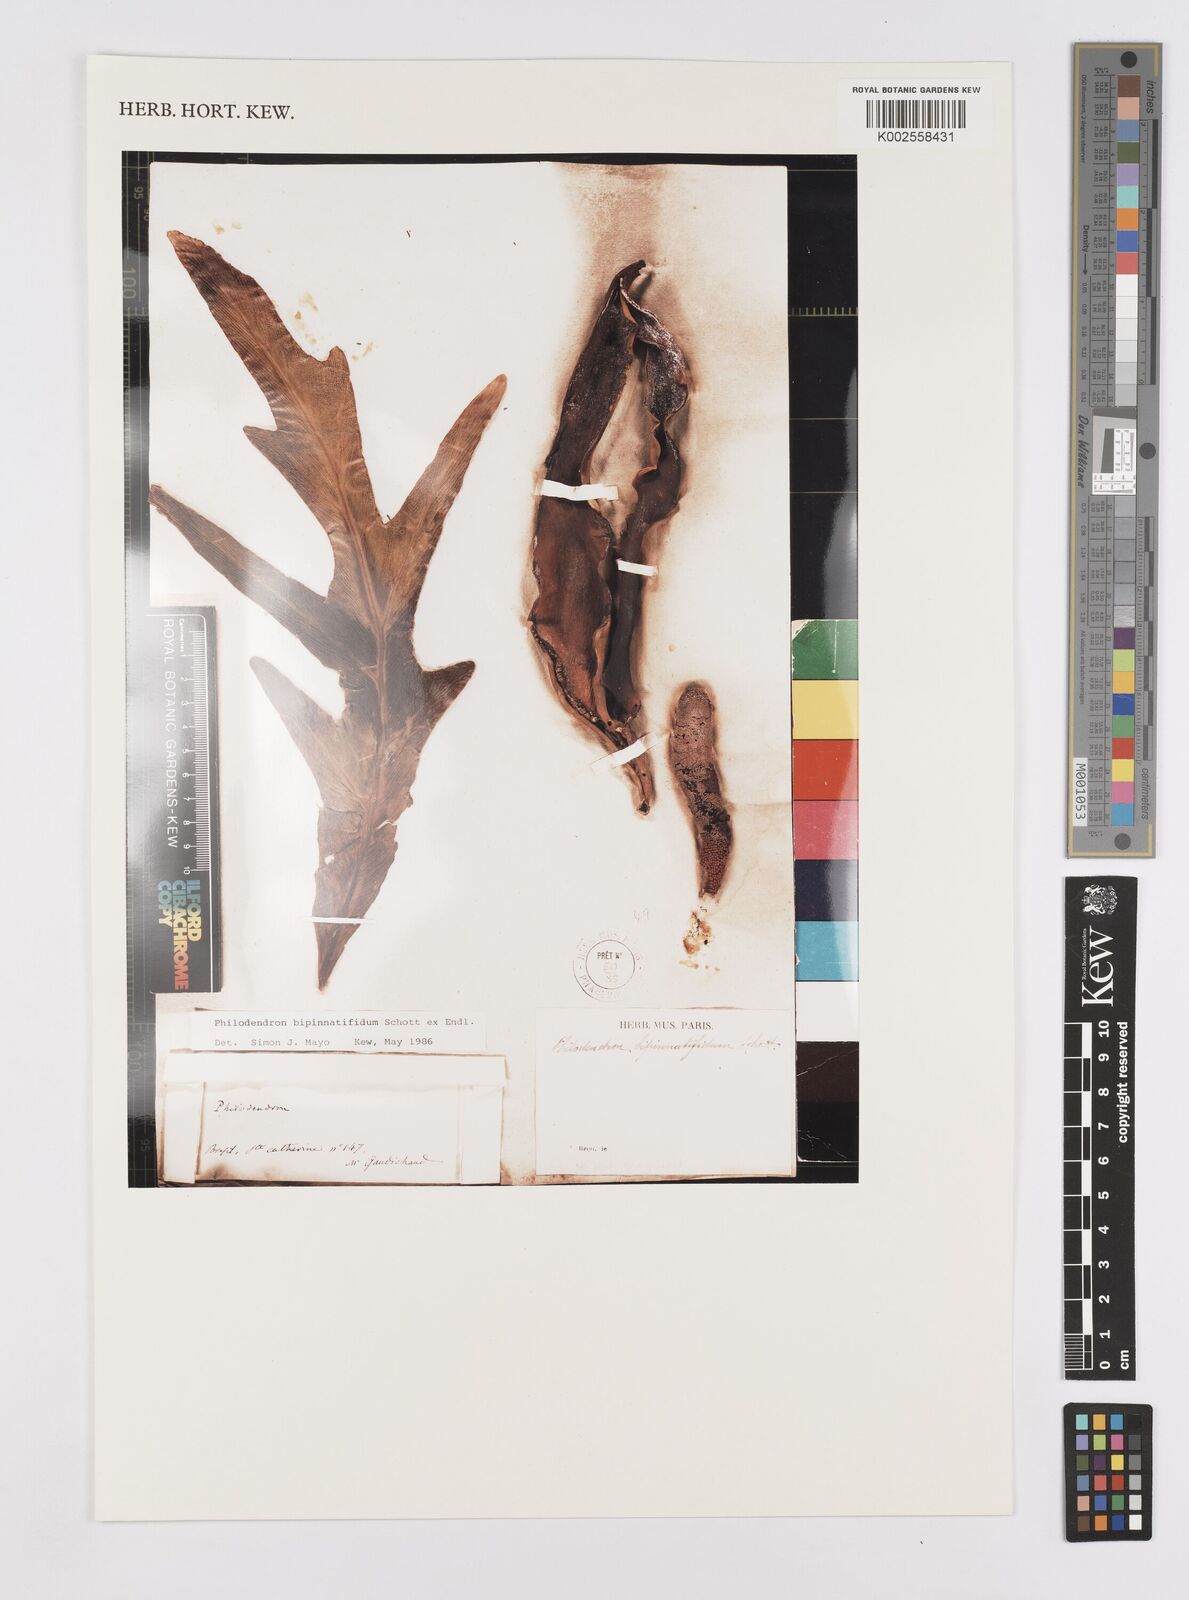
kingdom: Plantae
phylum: Tracheophyta
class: Liliopsida
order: Alismatales
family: Araceae
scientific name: Araceae
